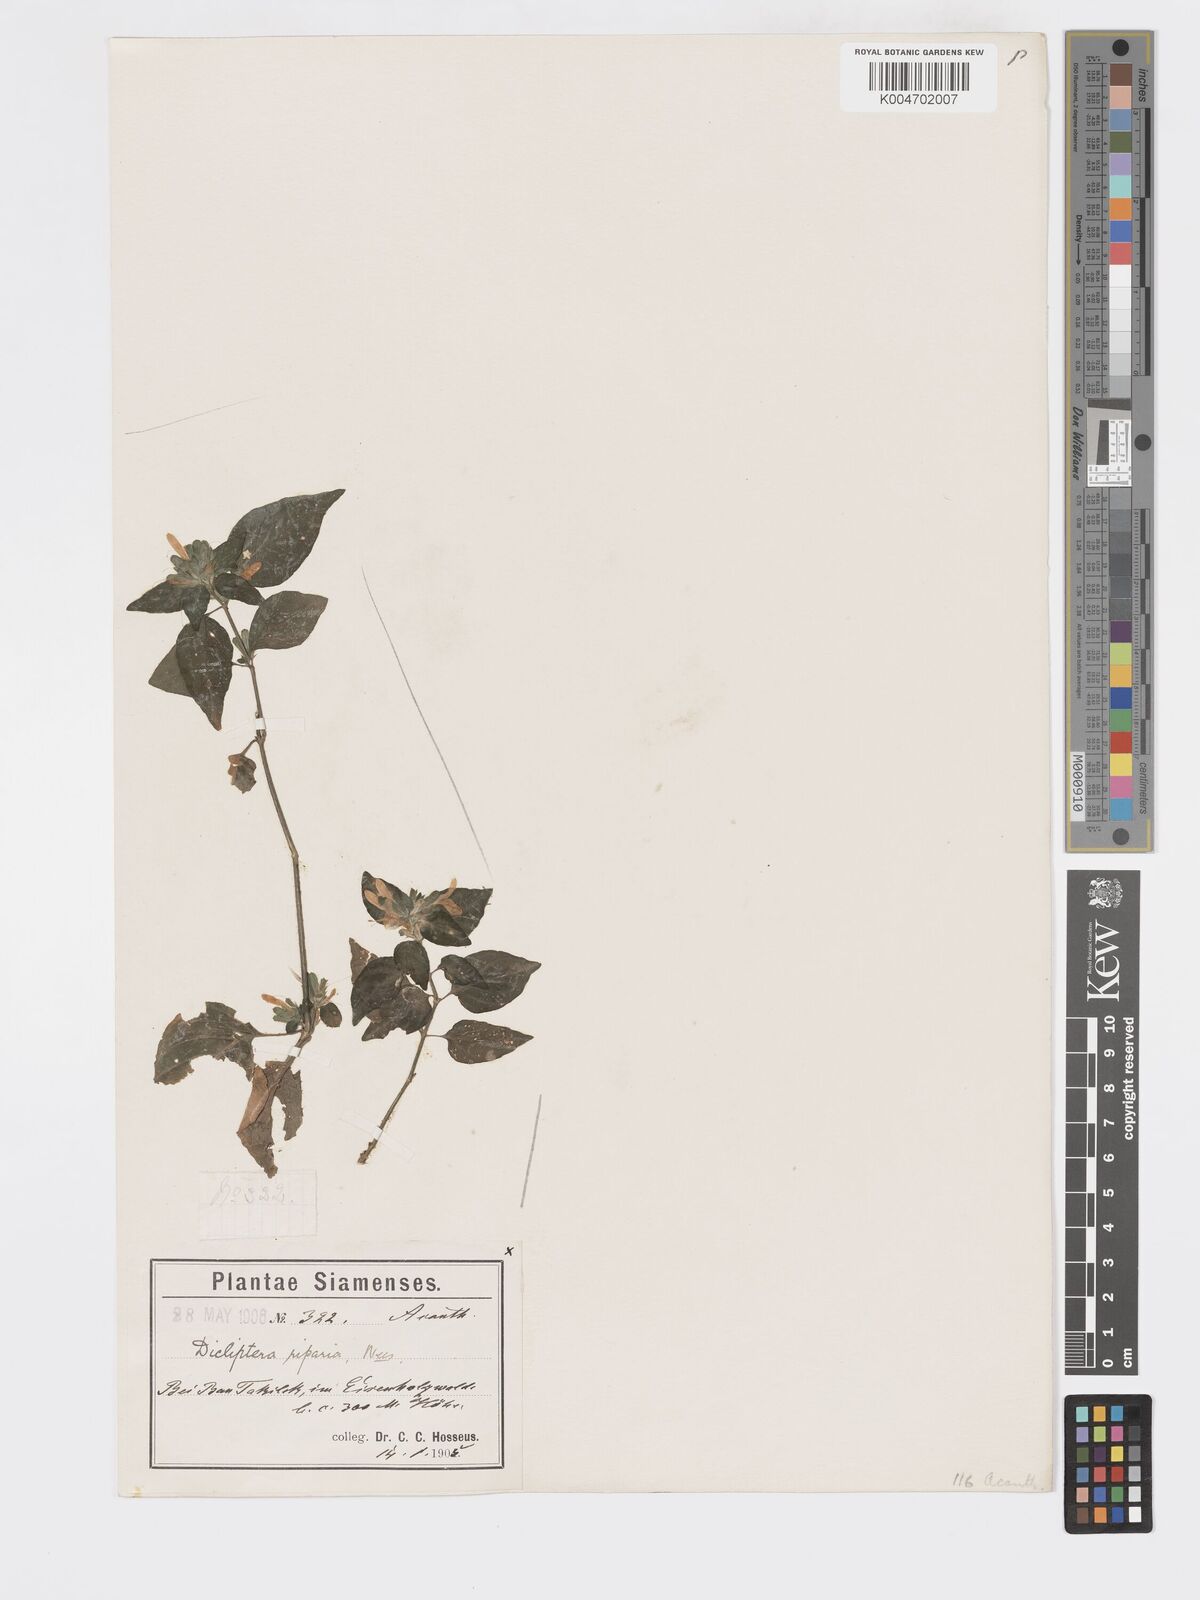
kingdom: Plantae
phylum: Tracheophyta
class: Magnoliopsida
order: Lamiales
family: Acanthaceae
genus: Dicliptera
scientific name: Dicliptera riparia
